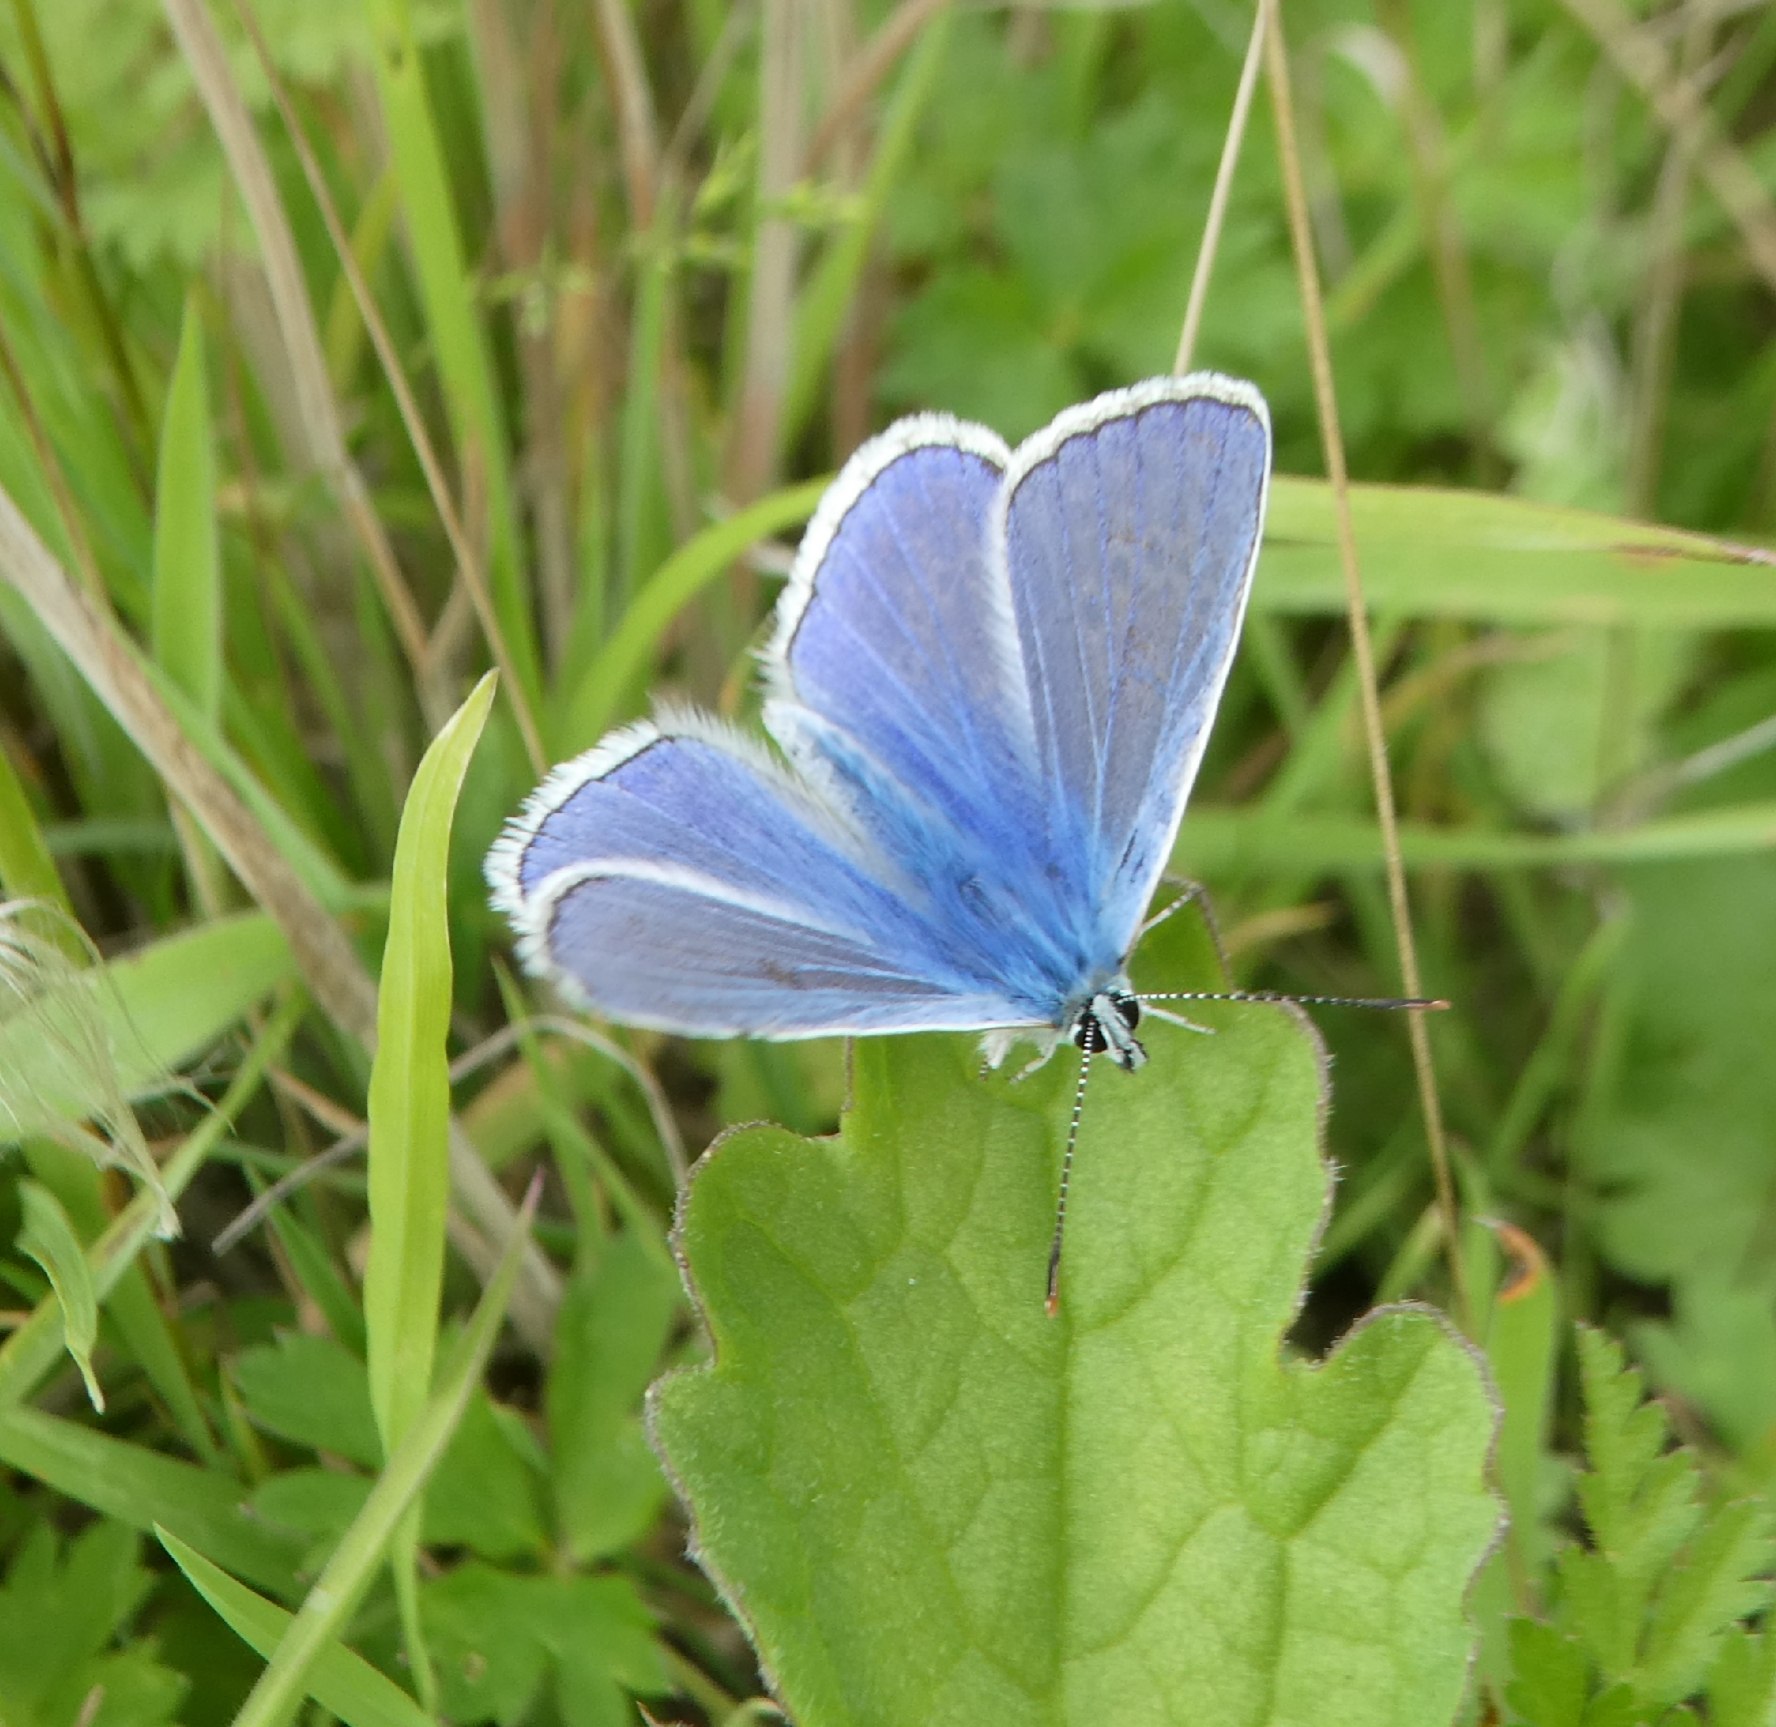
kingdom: Animalia
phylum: Arthropoda
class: Insecta
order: Lepidoptera
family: Lycaenidae
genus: Polyommatus
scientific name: Polyommatus icarus
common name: Almindelig blåfugl
